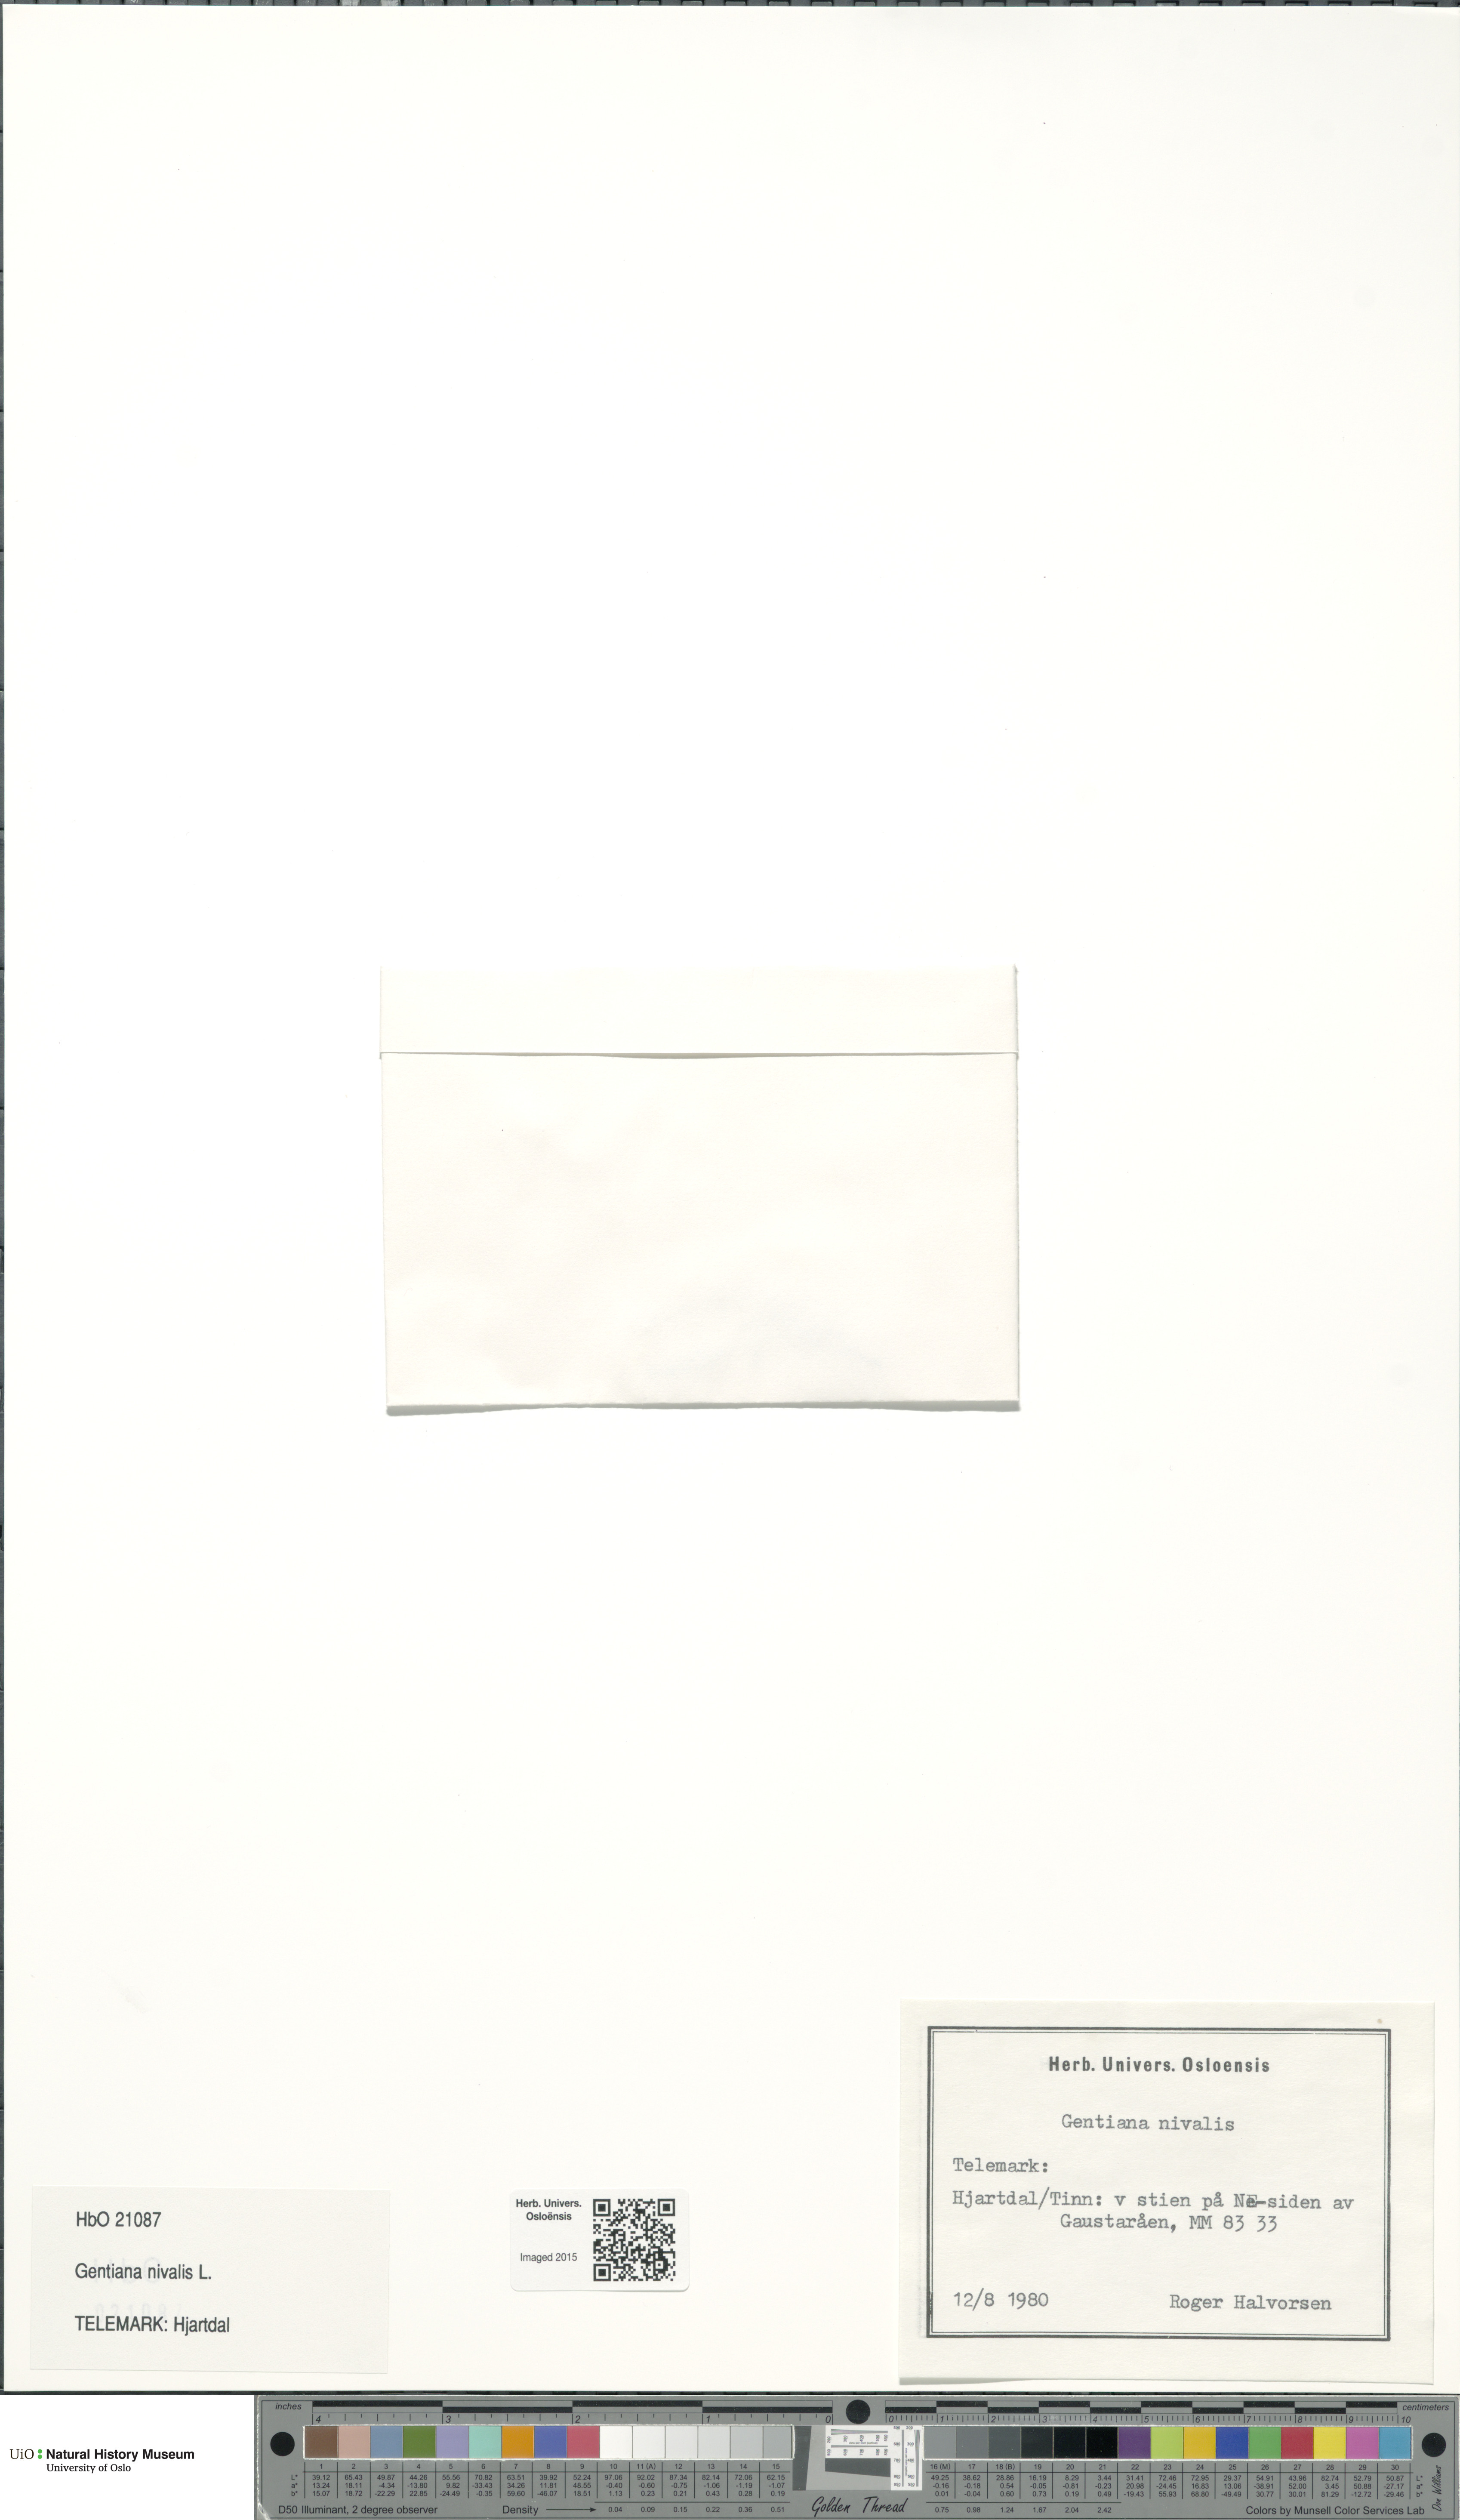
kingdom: Plantae
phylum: Tracheophyta
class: Magnoliopsida
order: Gentianales
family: Gentianaceae
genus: Gentiana
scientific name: Gentiana nivalis
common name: Alpine gentian
